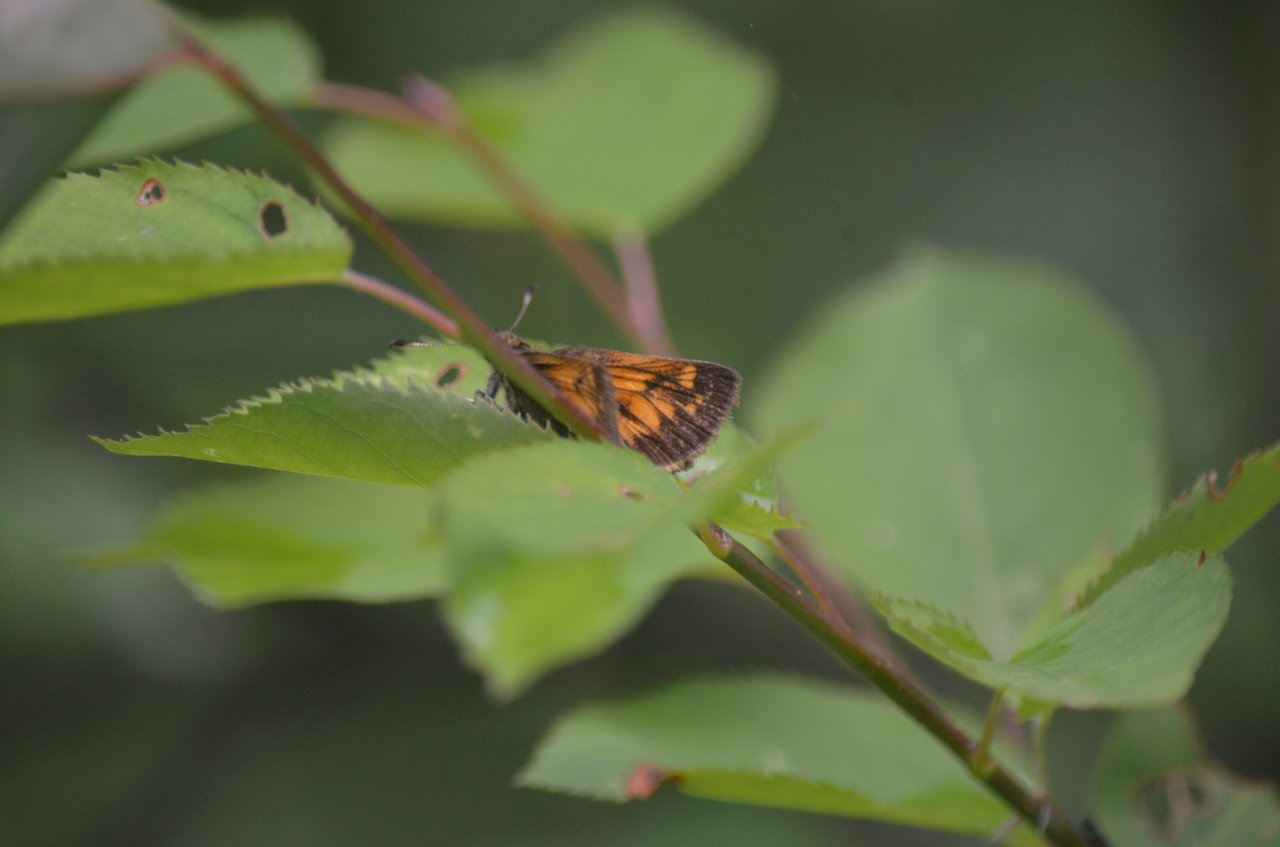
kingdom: Animalia
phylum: Arthropoda
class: Insecta
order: Lepidoptera
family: Hesperiidae
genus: Lon
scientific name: Lon hobomok
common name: Hobomok Skipper
